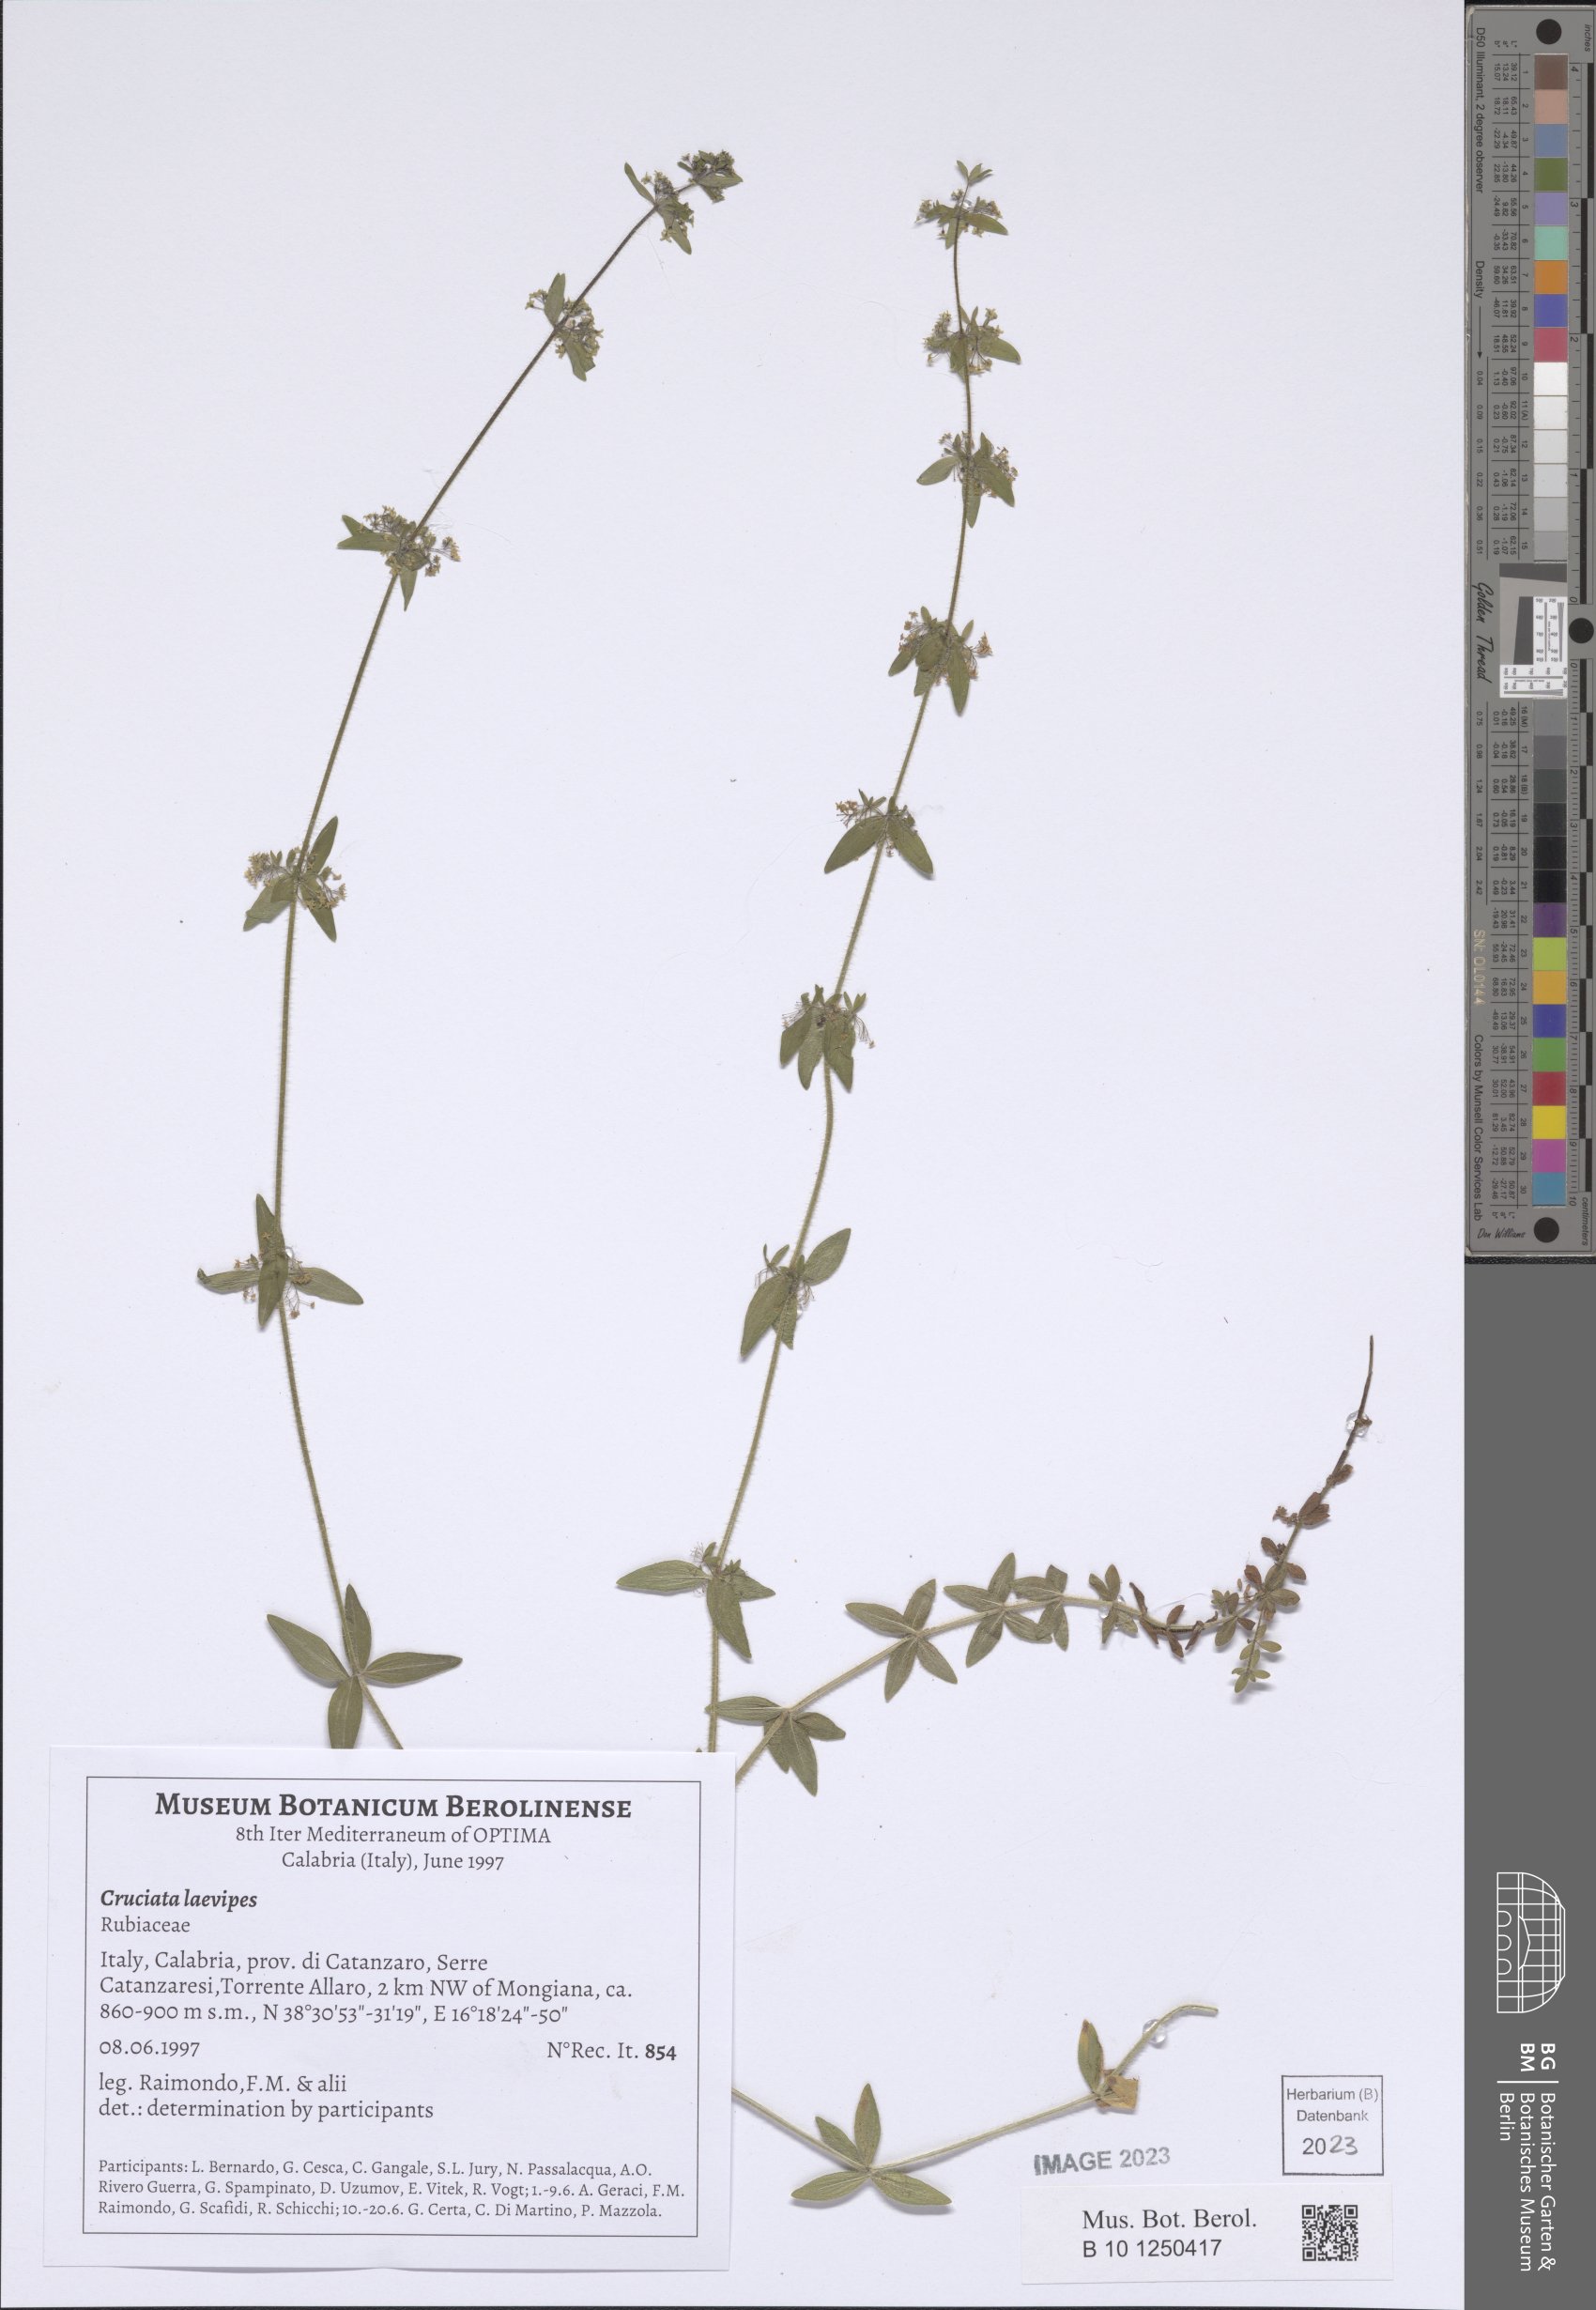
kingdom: Plantae
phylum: Tracheophyta
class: Magnoliopsida
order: Gentianales
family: Rubiaceae
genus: Cruciata
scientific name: Cruciata laevipes
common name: Crosswort
